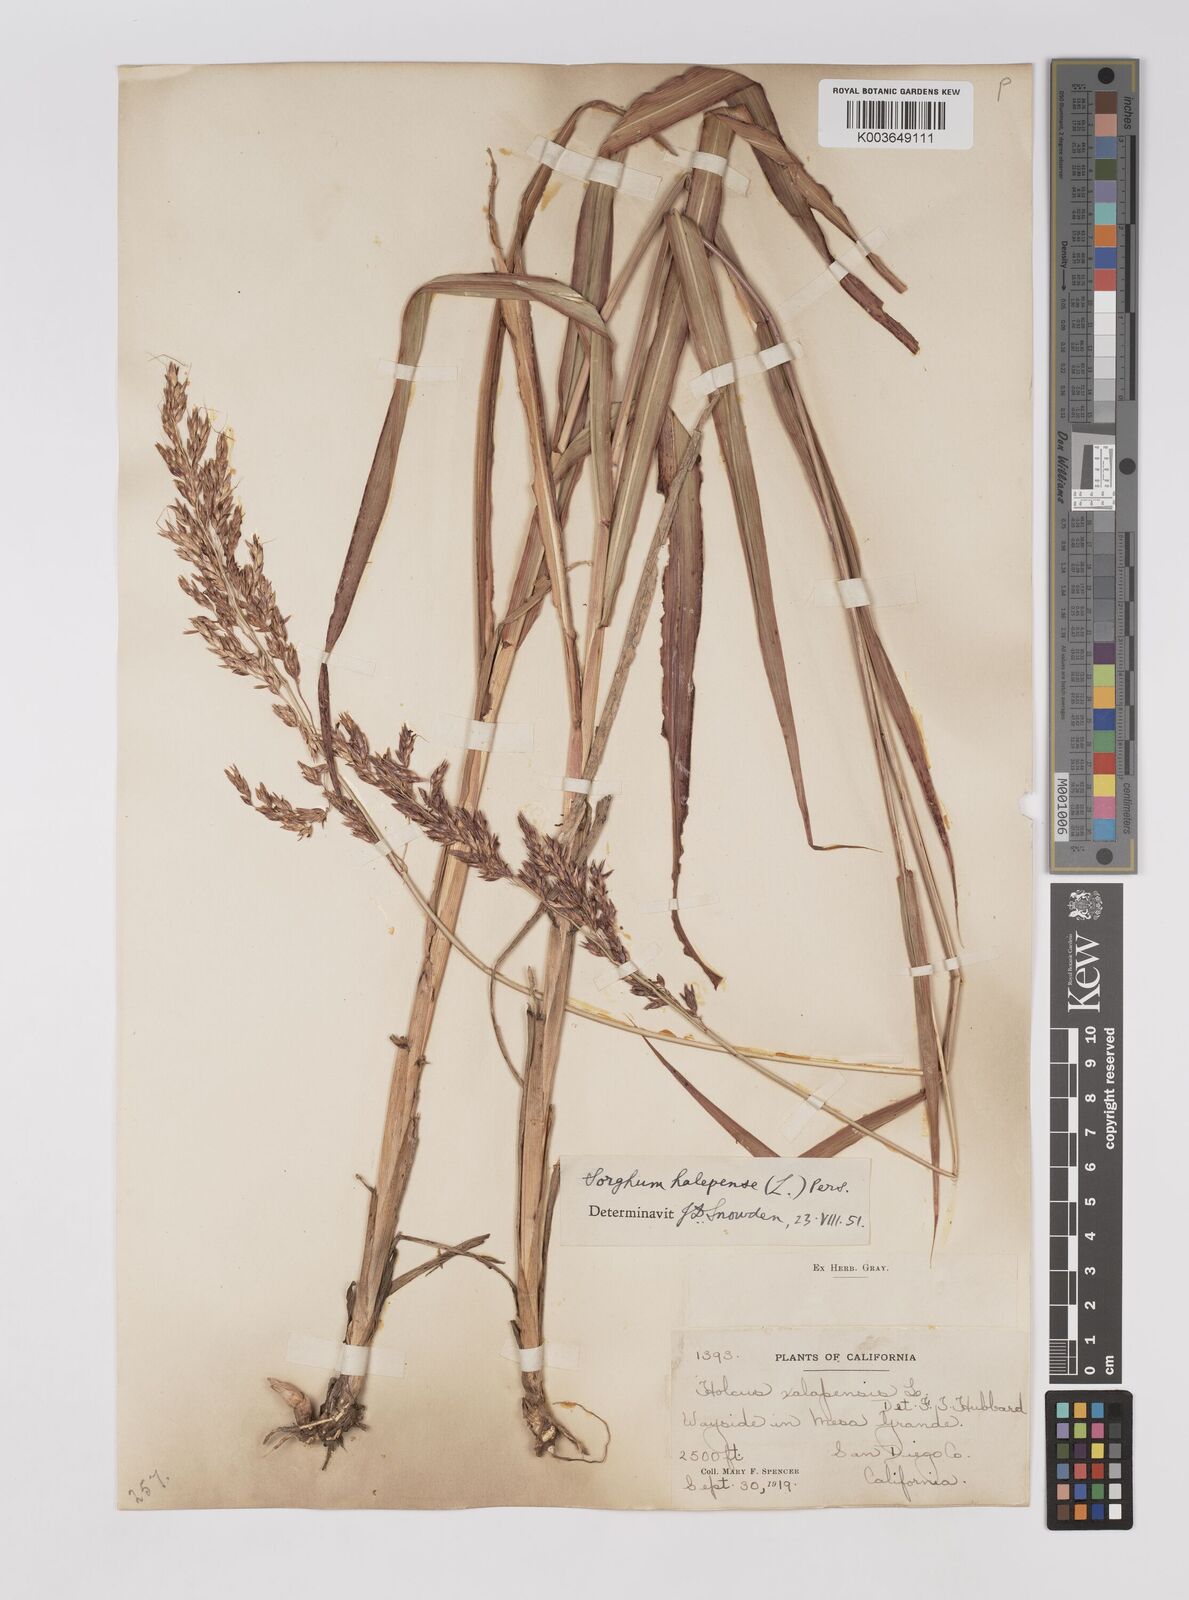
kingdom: Plantae
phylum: Tracheophyta
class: Liliopsida
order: Poales
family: Poaceae
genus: Sorghum
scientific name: Sorghum halepense
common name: Johnson-grass
